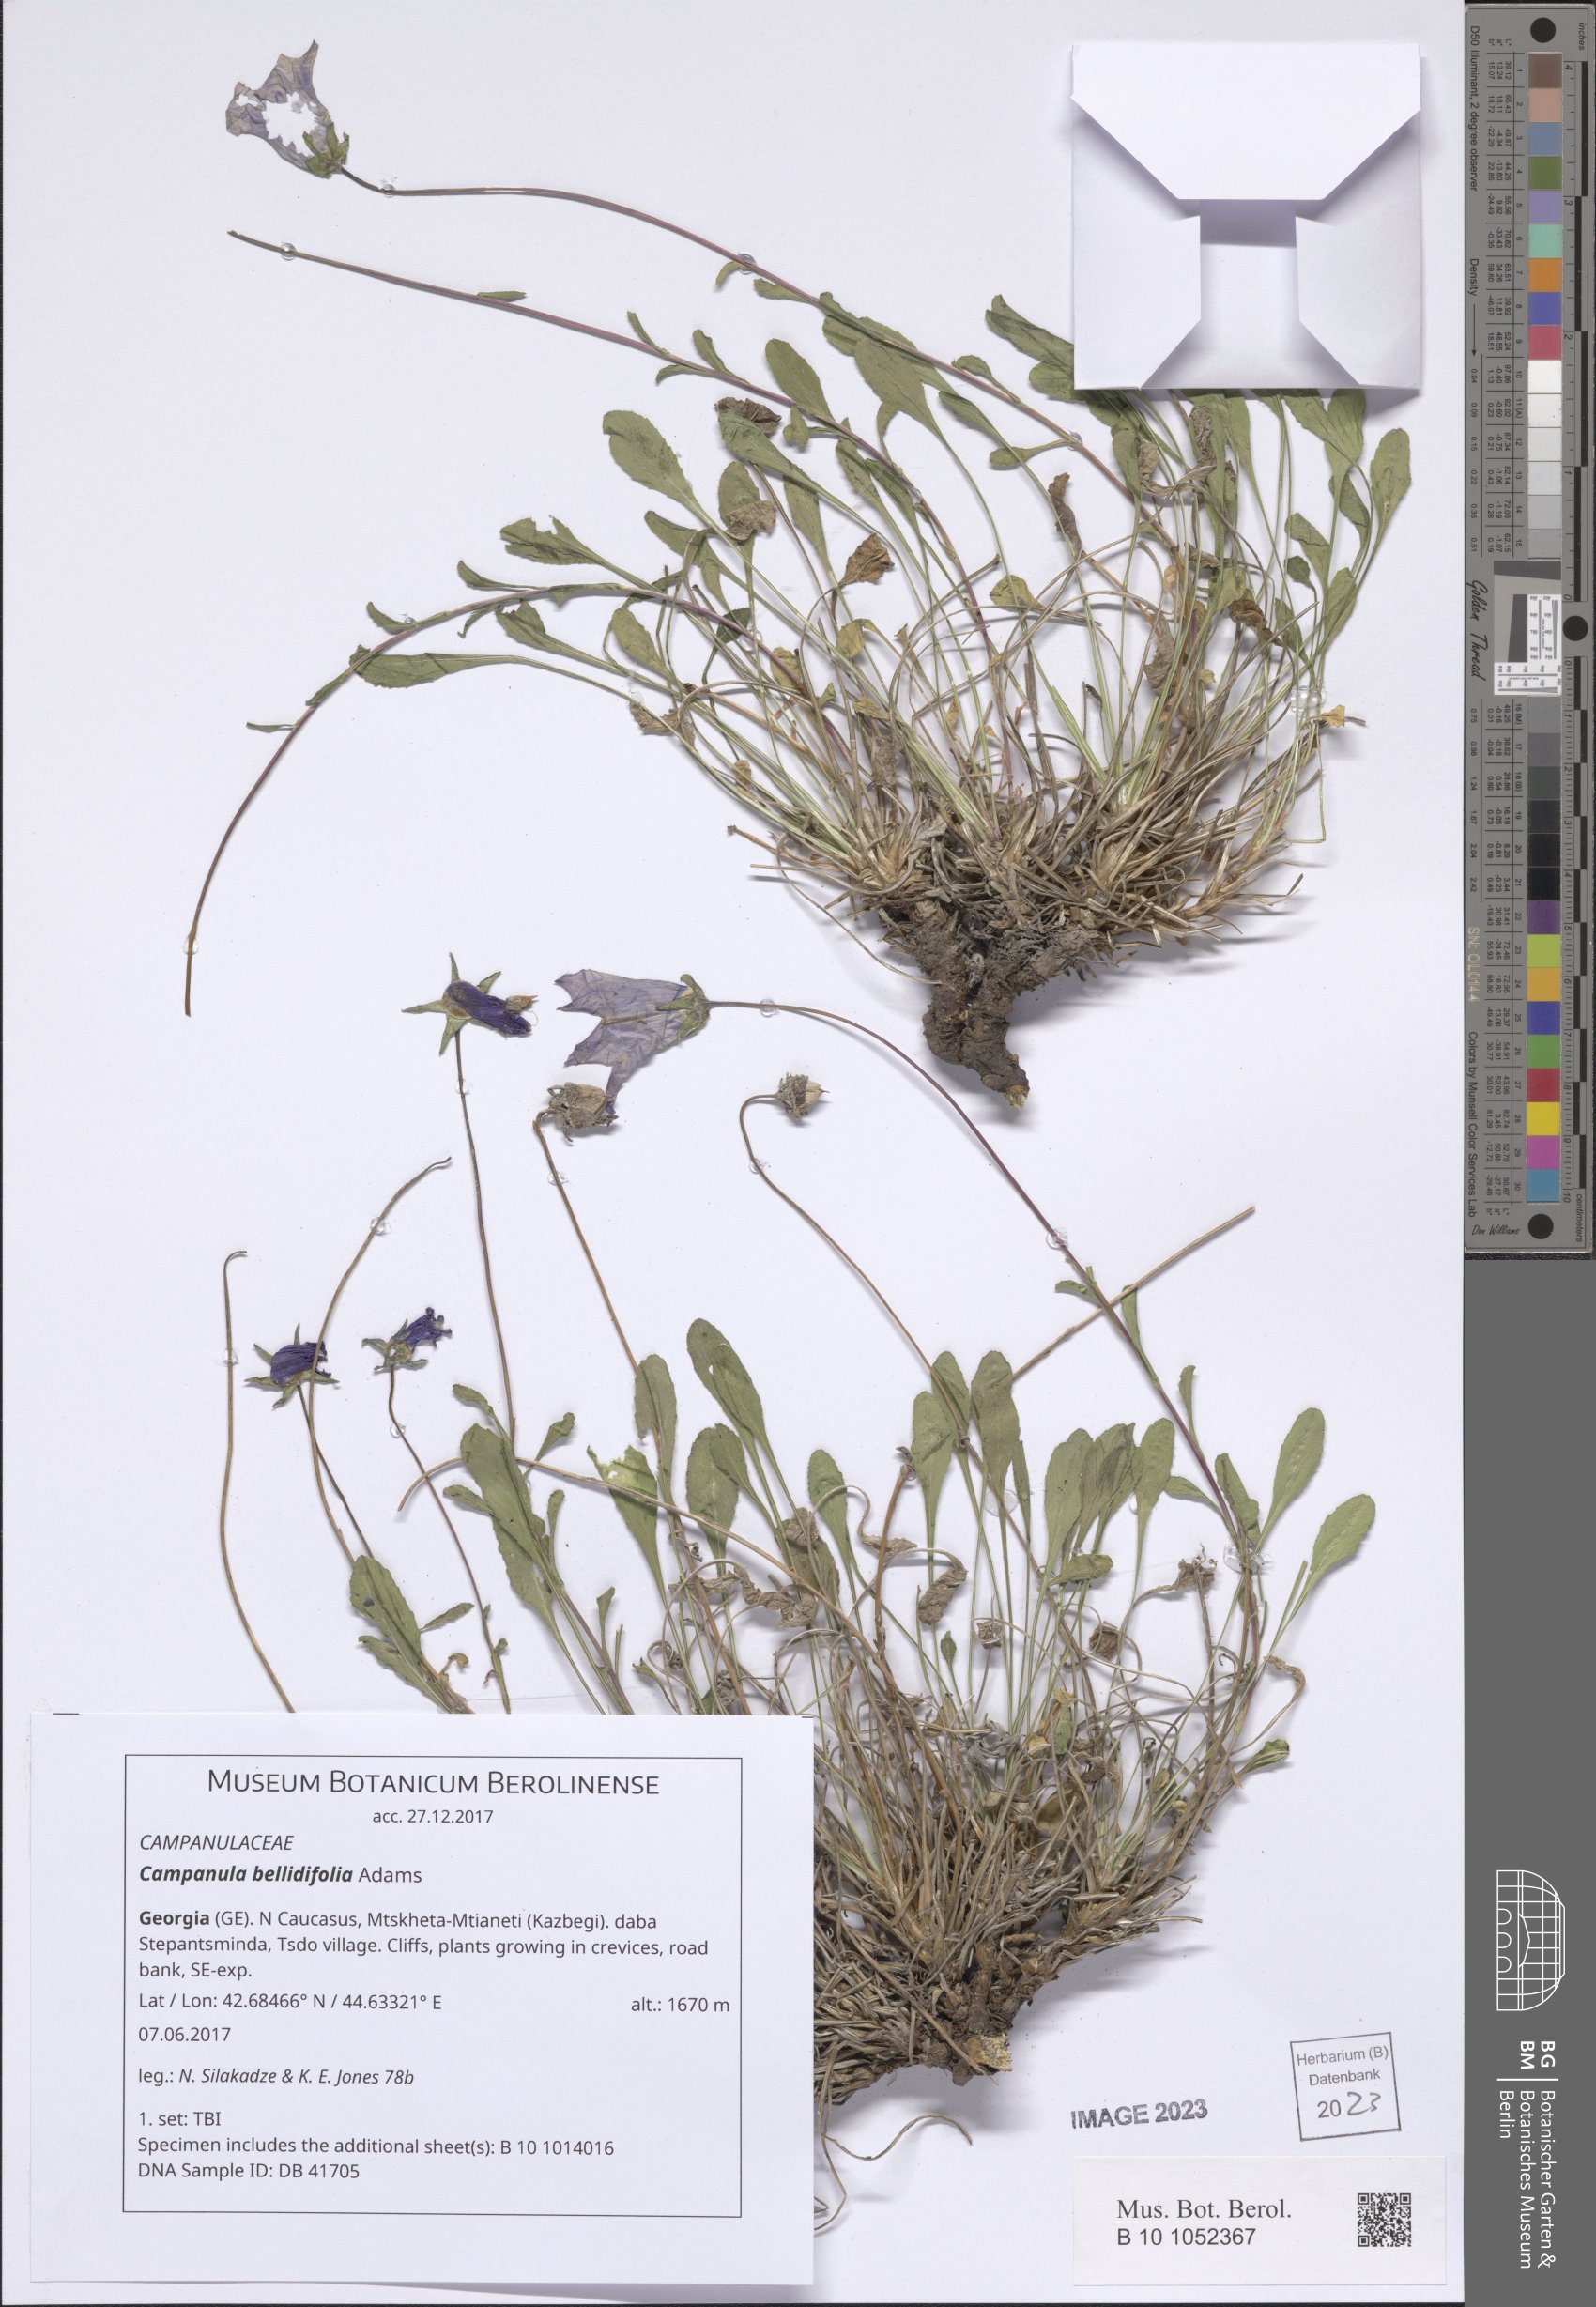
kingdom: Plantae
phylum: Tracheophyta
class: Magnoliopsida
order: Asterales
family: Campanulaceae
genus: Campanula
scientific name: Campanula bellidifolia
